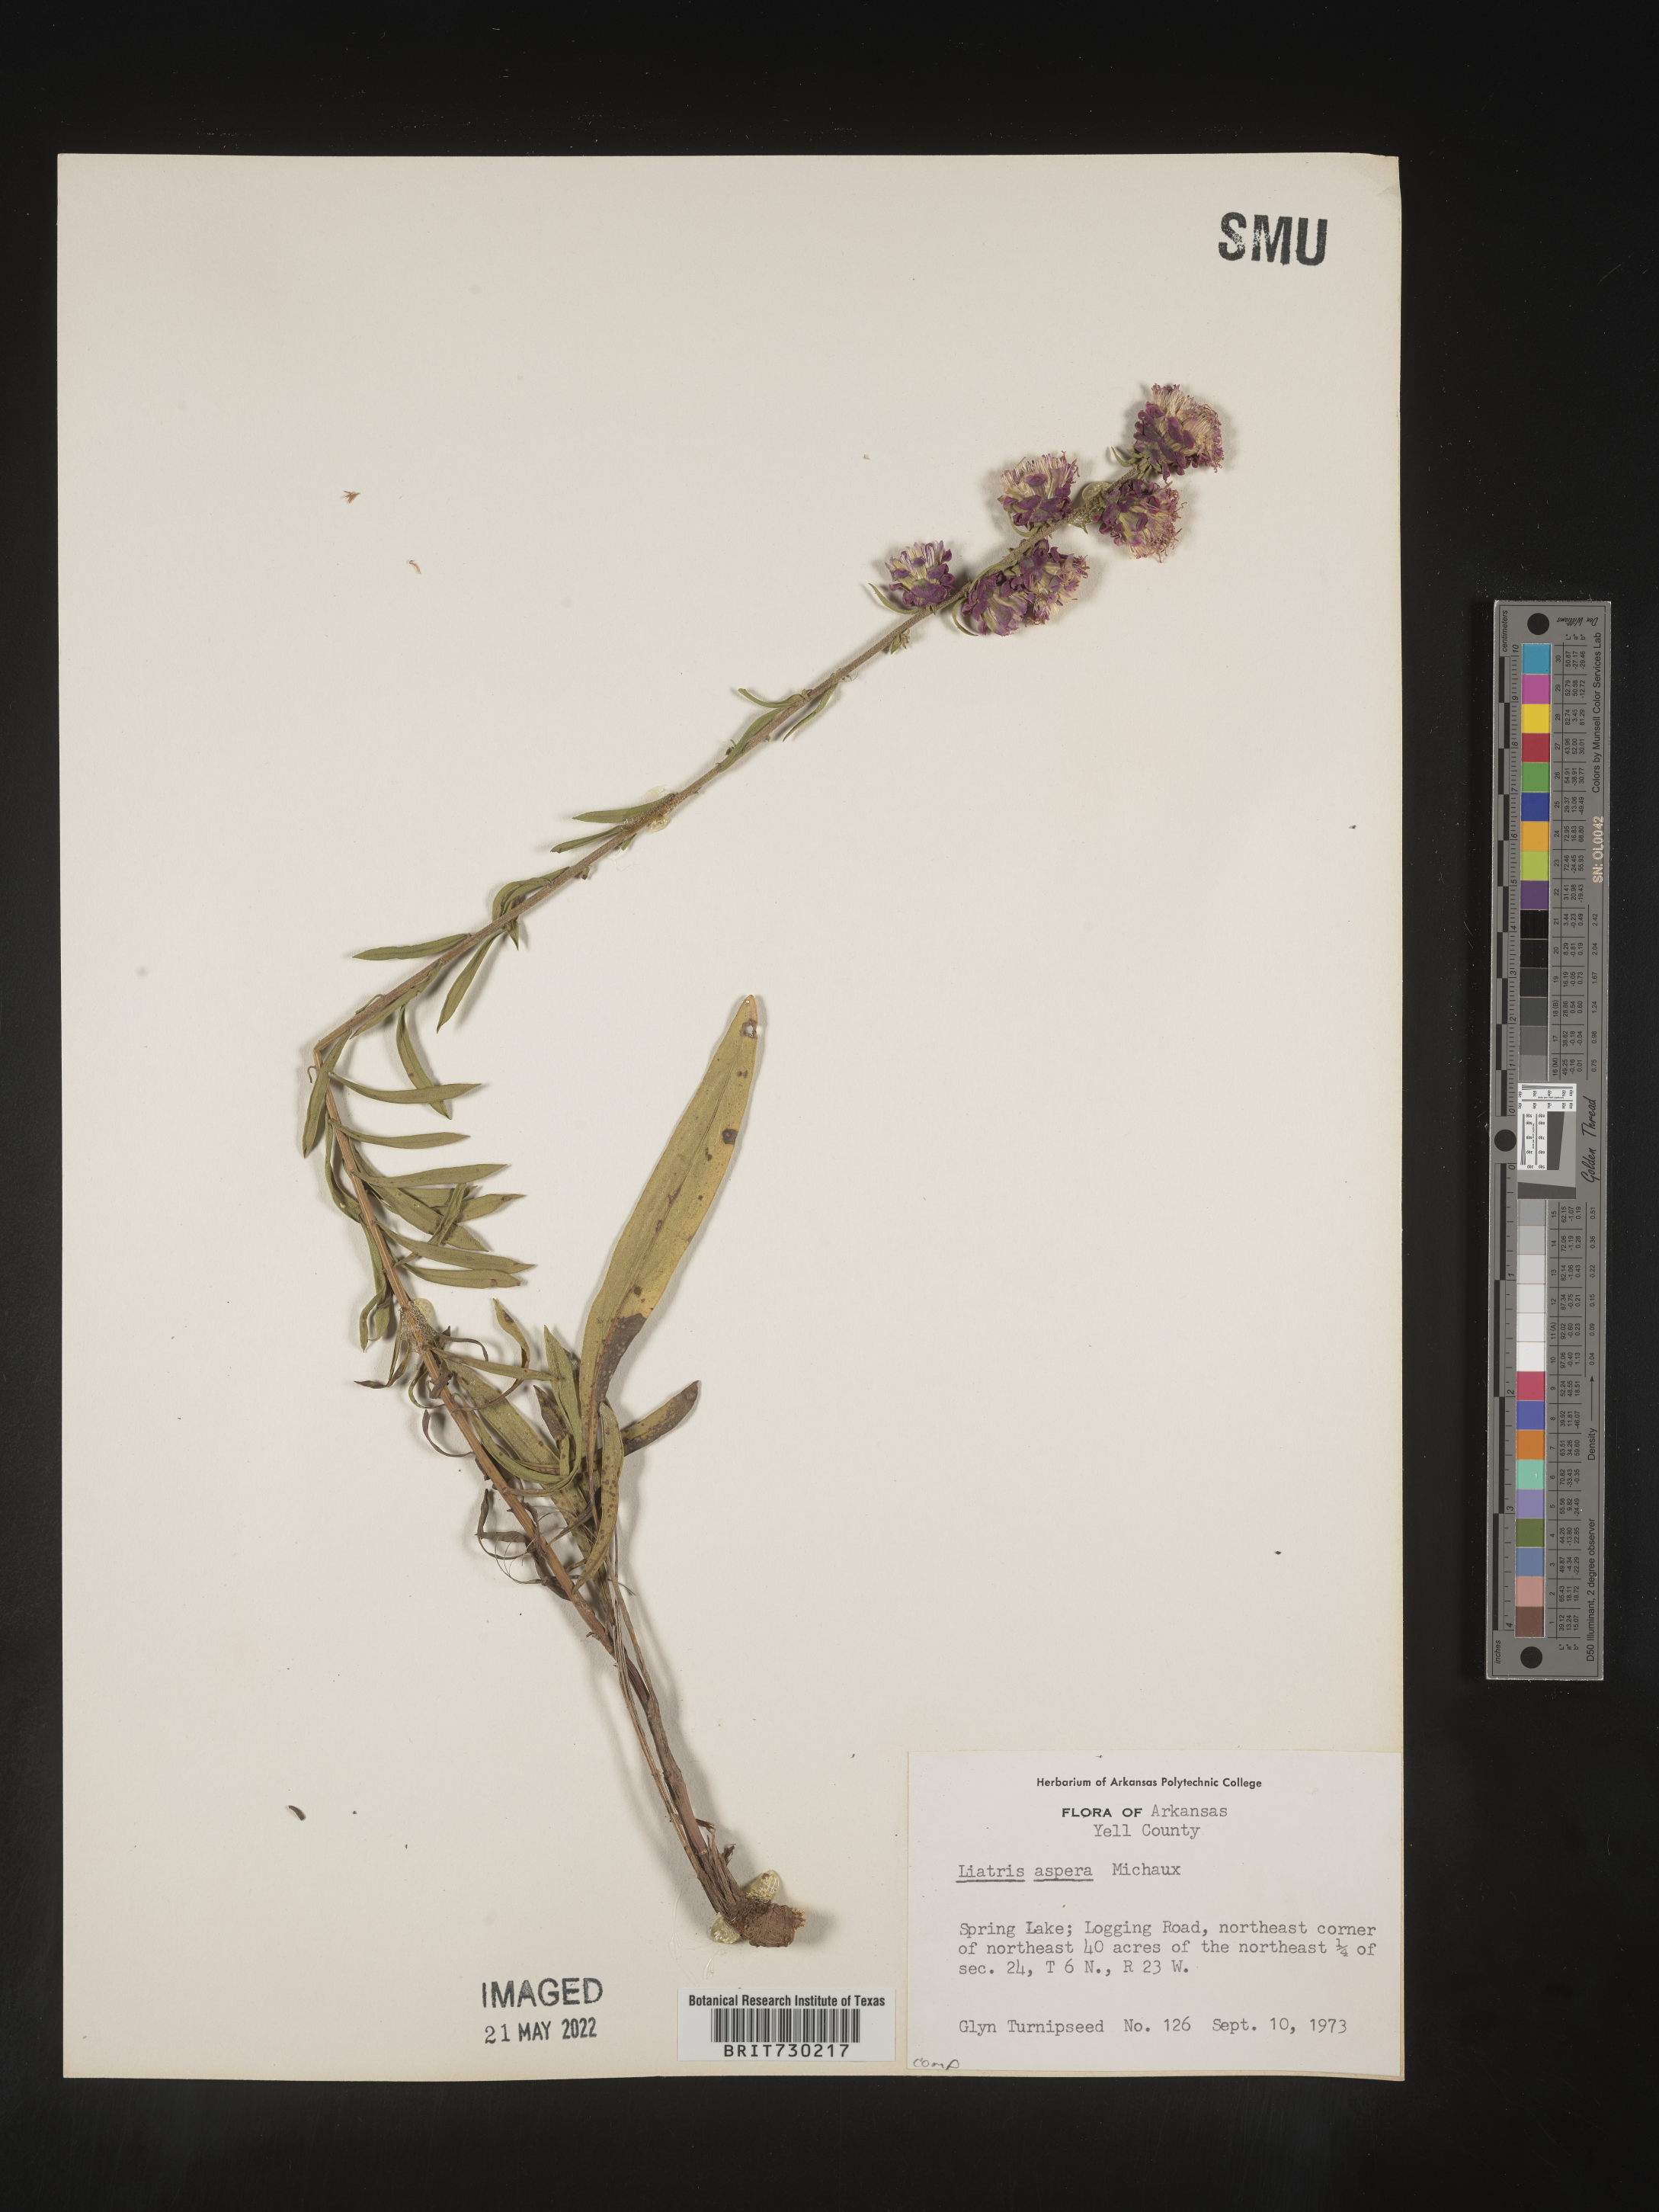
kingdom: Plantae
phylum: Tracheophyta
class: Magnoliopsida
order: Asterales
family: Asteraceae
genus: Liatris
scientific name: Liatris aspera
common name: Lacerate blazing-star
